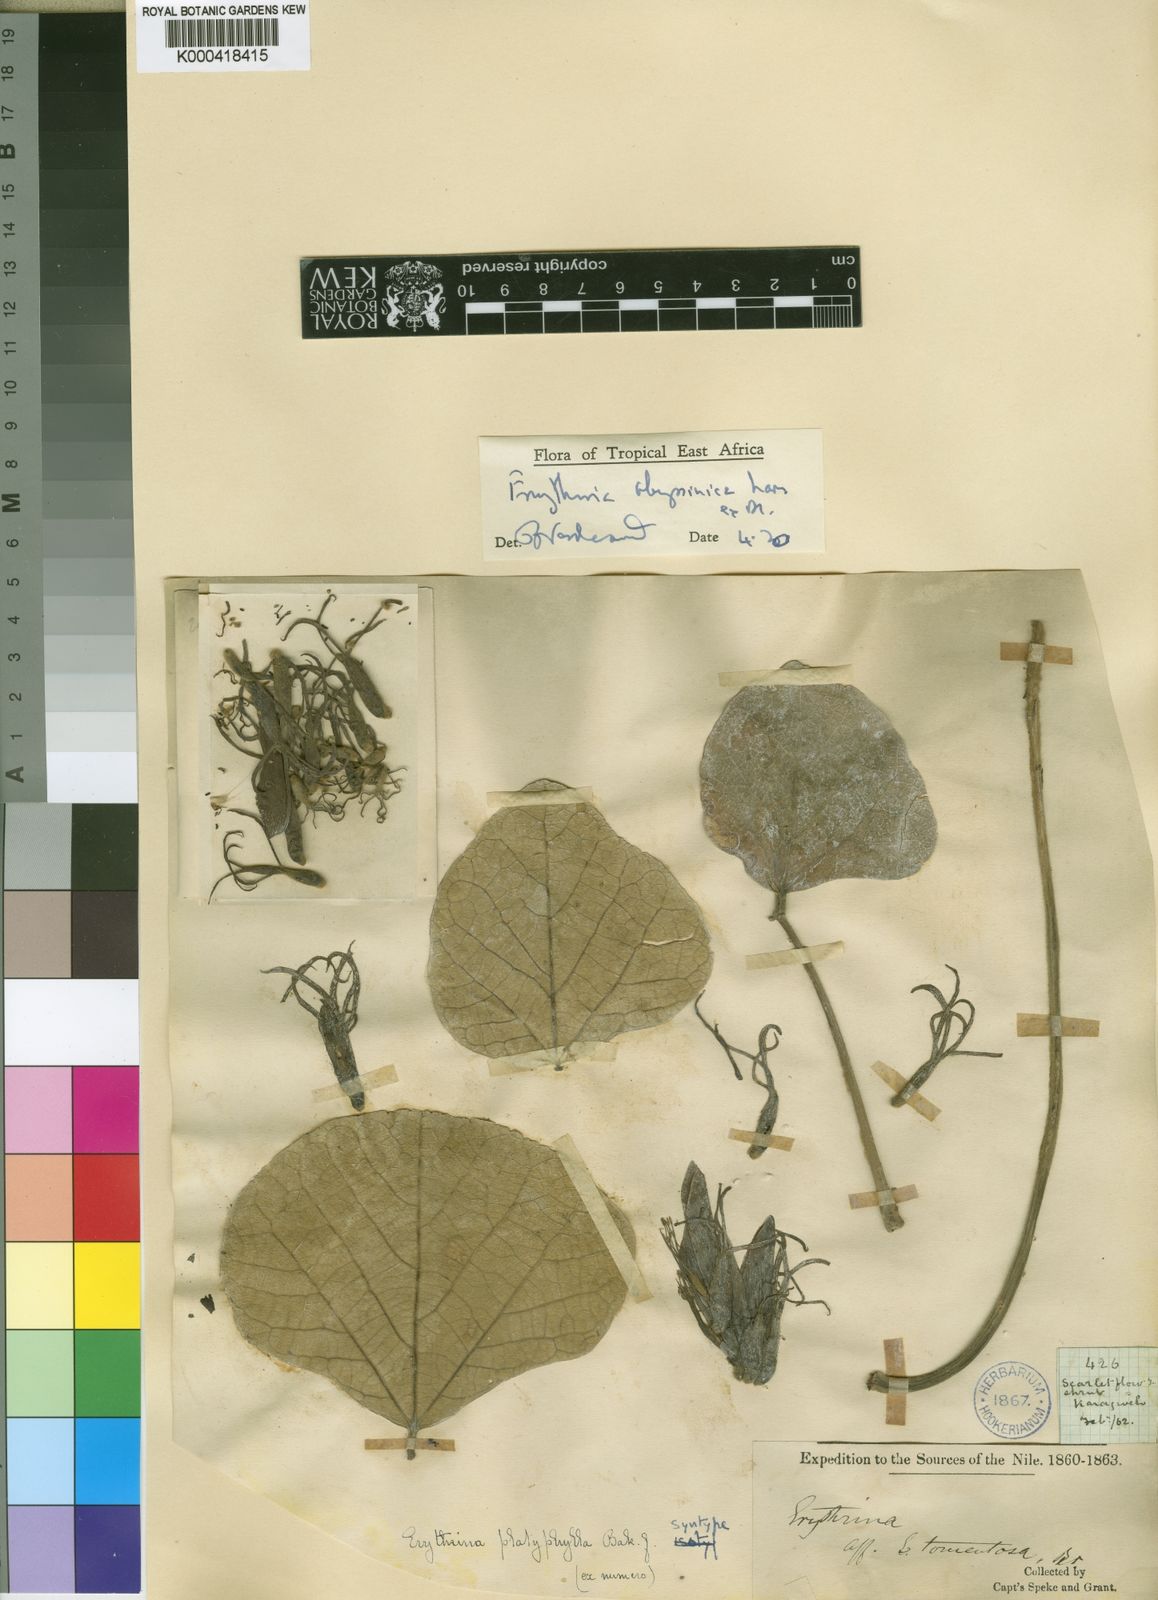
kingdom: Plantae
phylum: Tracheophyta
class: Magnoliopsida
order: Fabales
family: Fabaceae
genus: Erythrina
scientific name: Erythrina abyssinica
